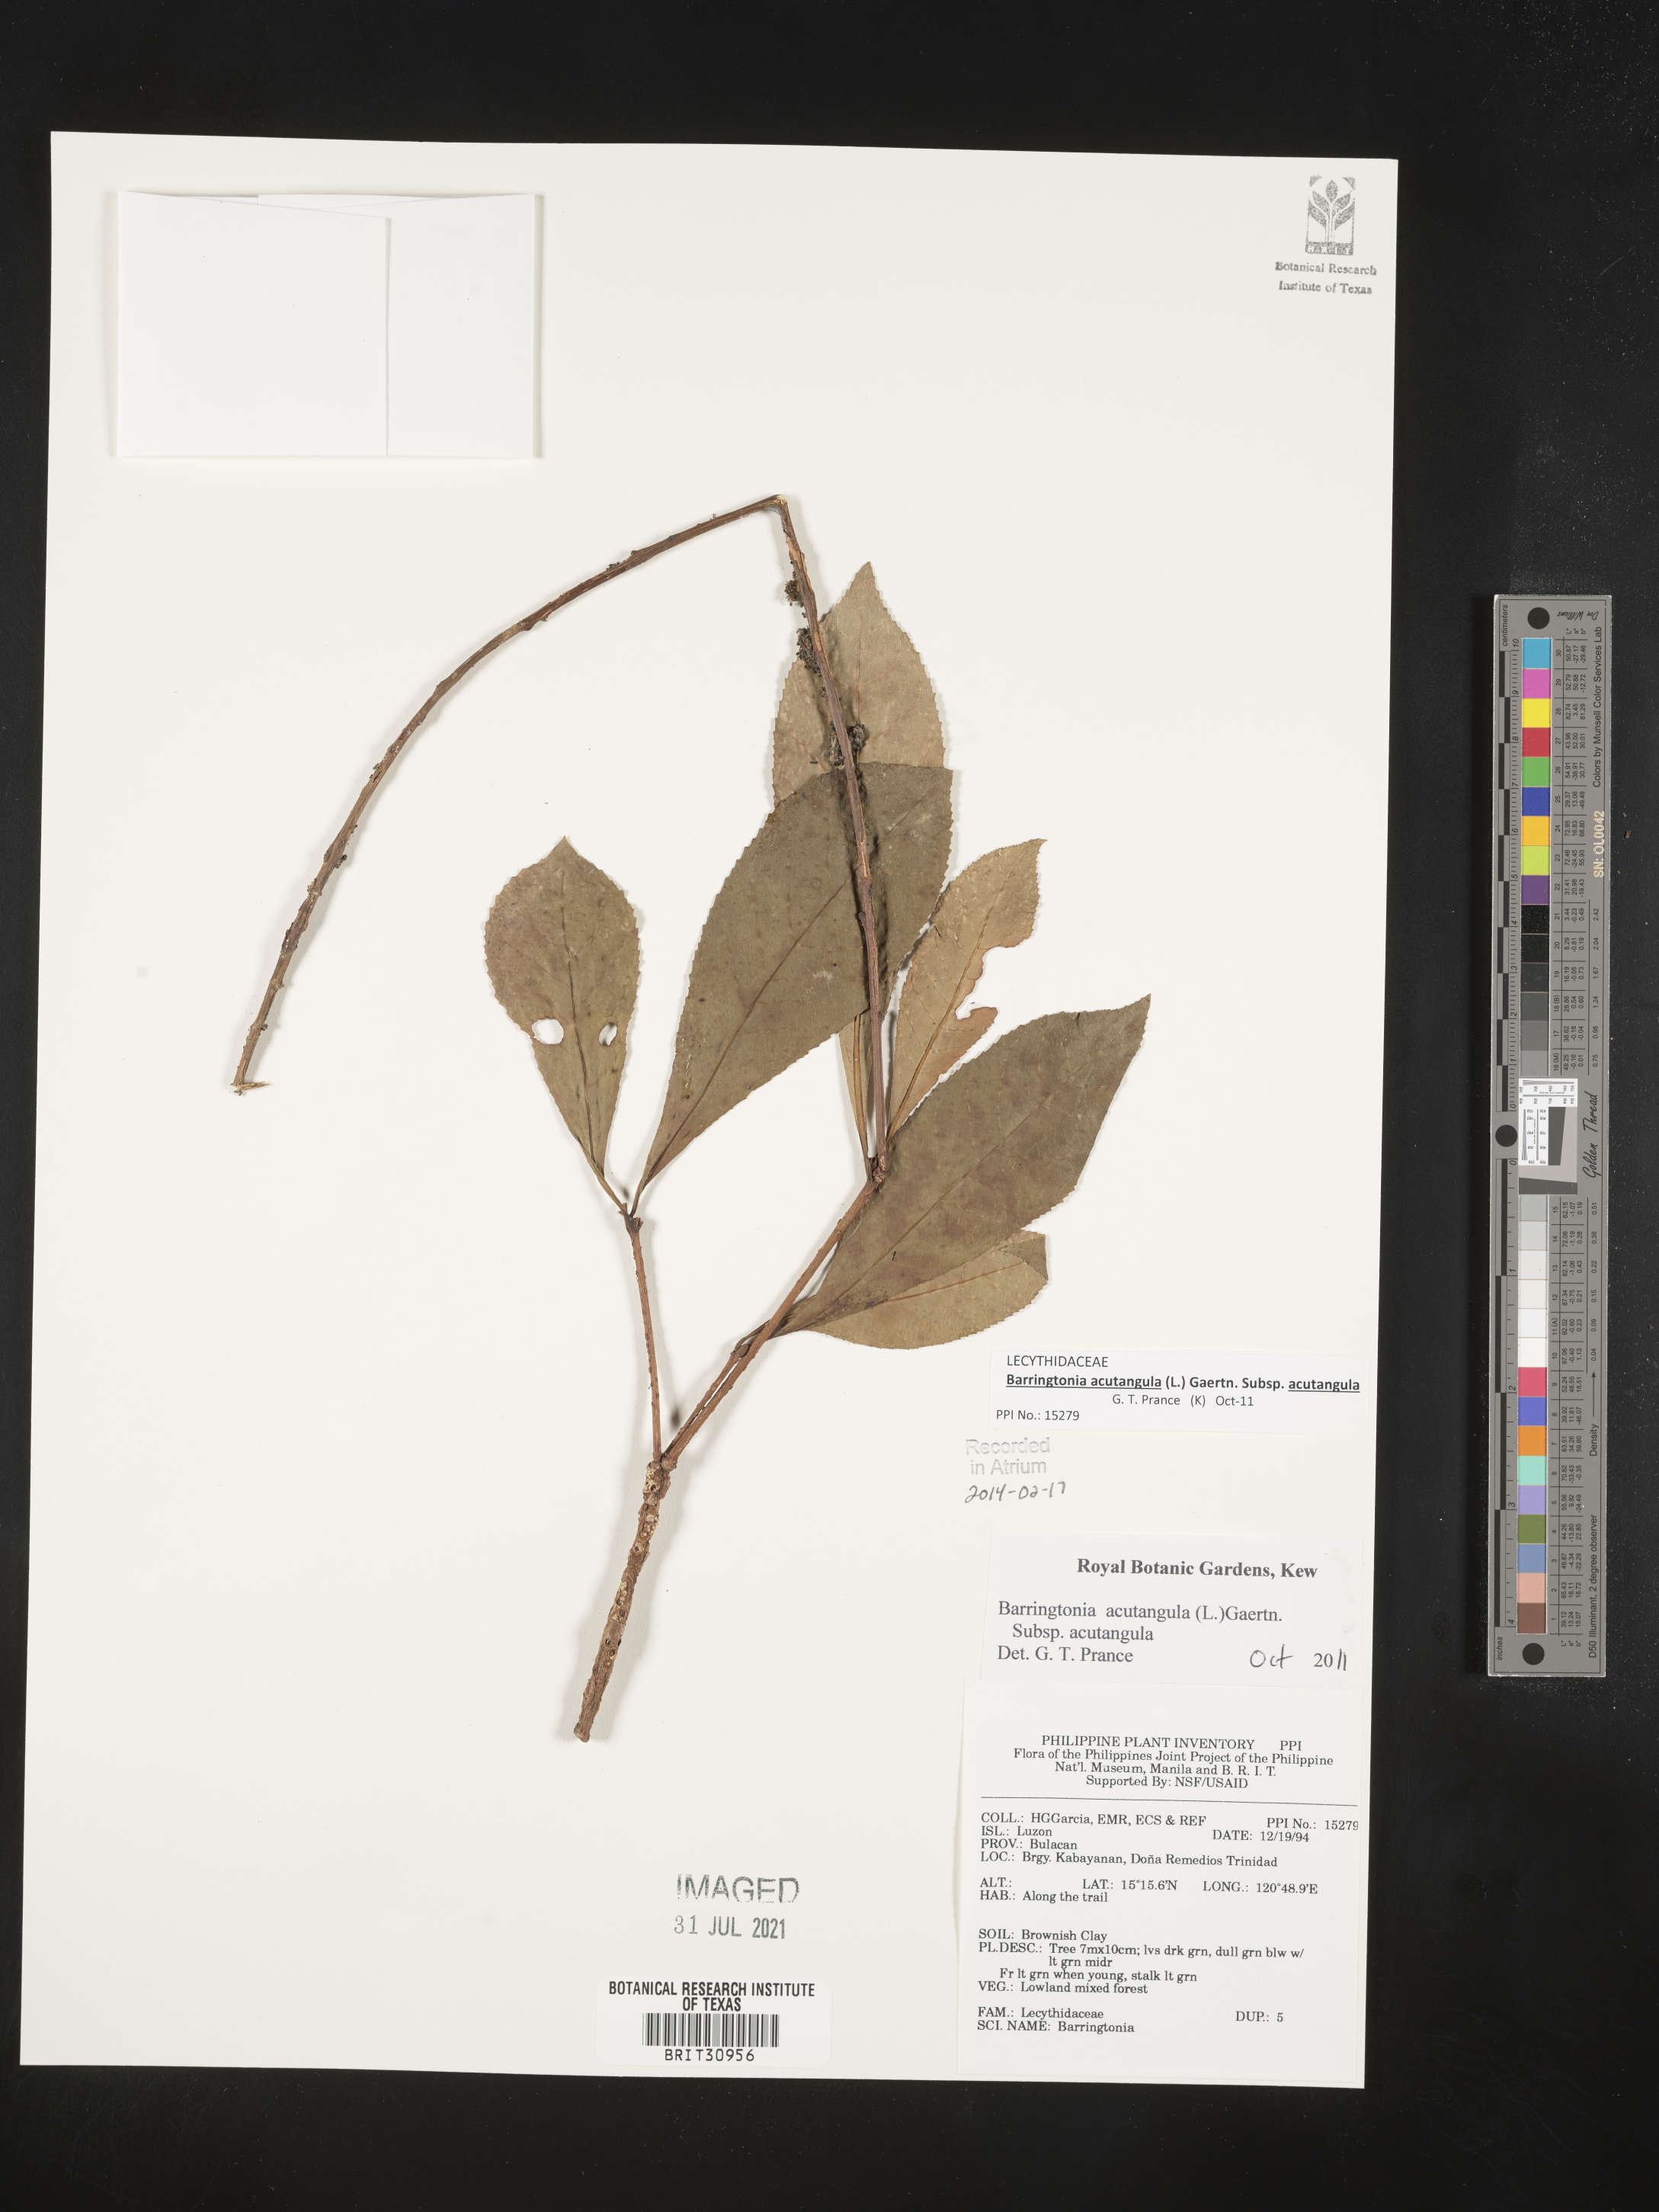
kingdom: Plantae
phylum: Tracheophyta
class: Magnoliopsida
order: Ericales
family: Lecythidaceae
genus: Barringtonia
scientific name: Barringtonia
